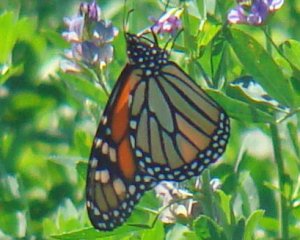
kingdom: Animalia
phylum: Arthropoda
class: Insecta
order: Lepidoptera
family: Nymphalidae
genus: Danaus
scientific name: Danaus plexippus
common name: Monarch
